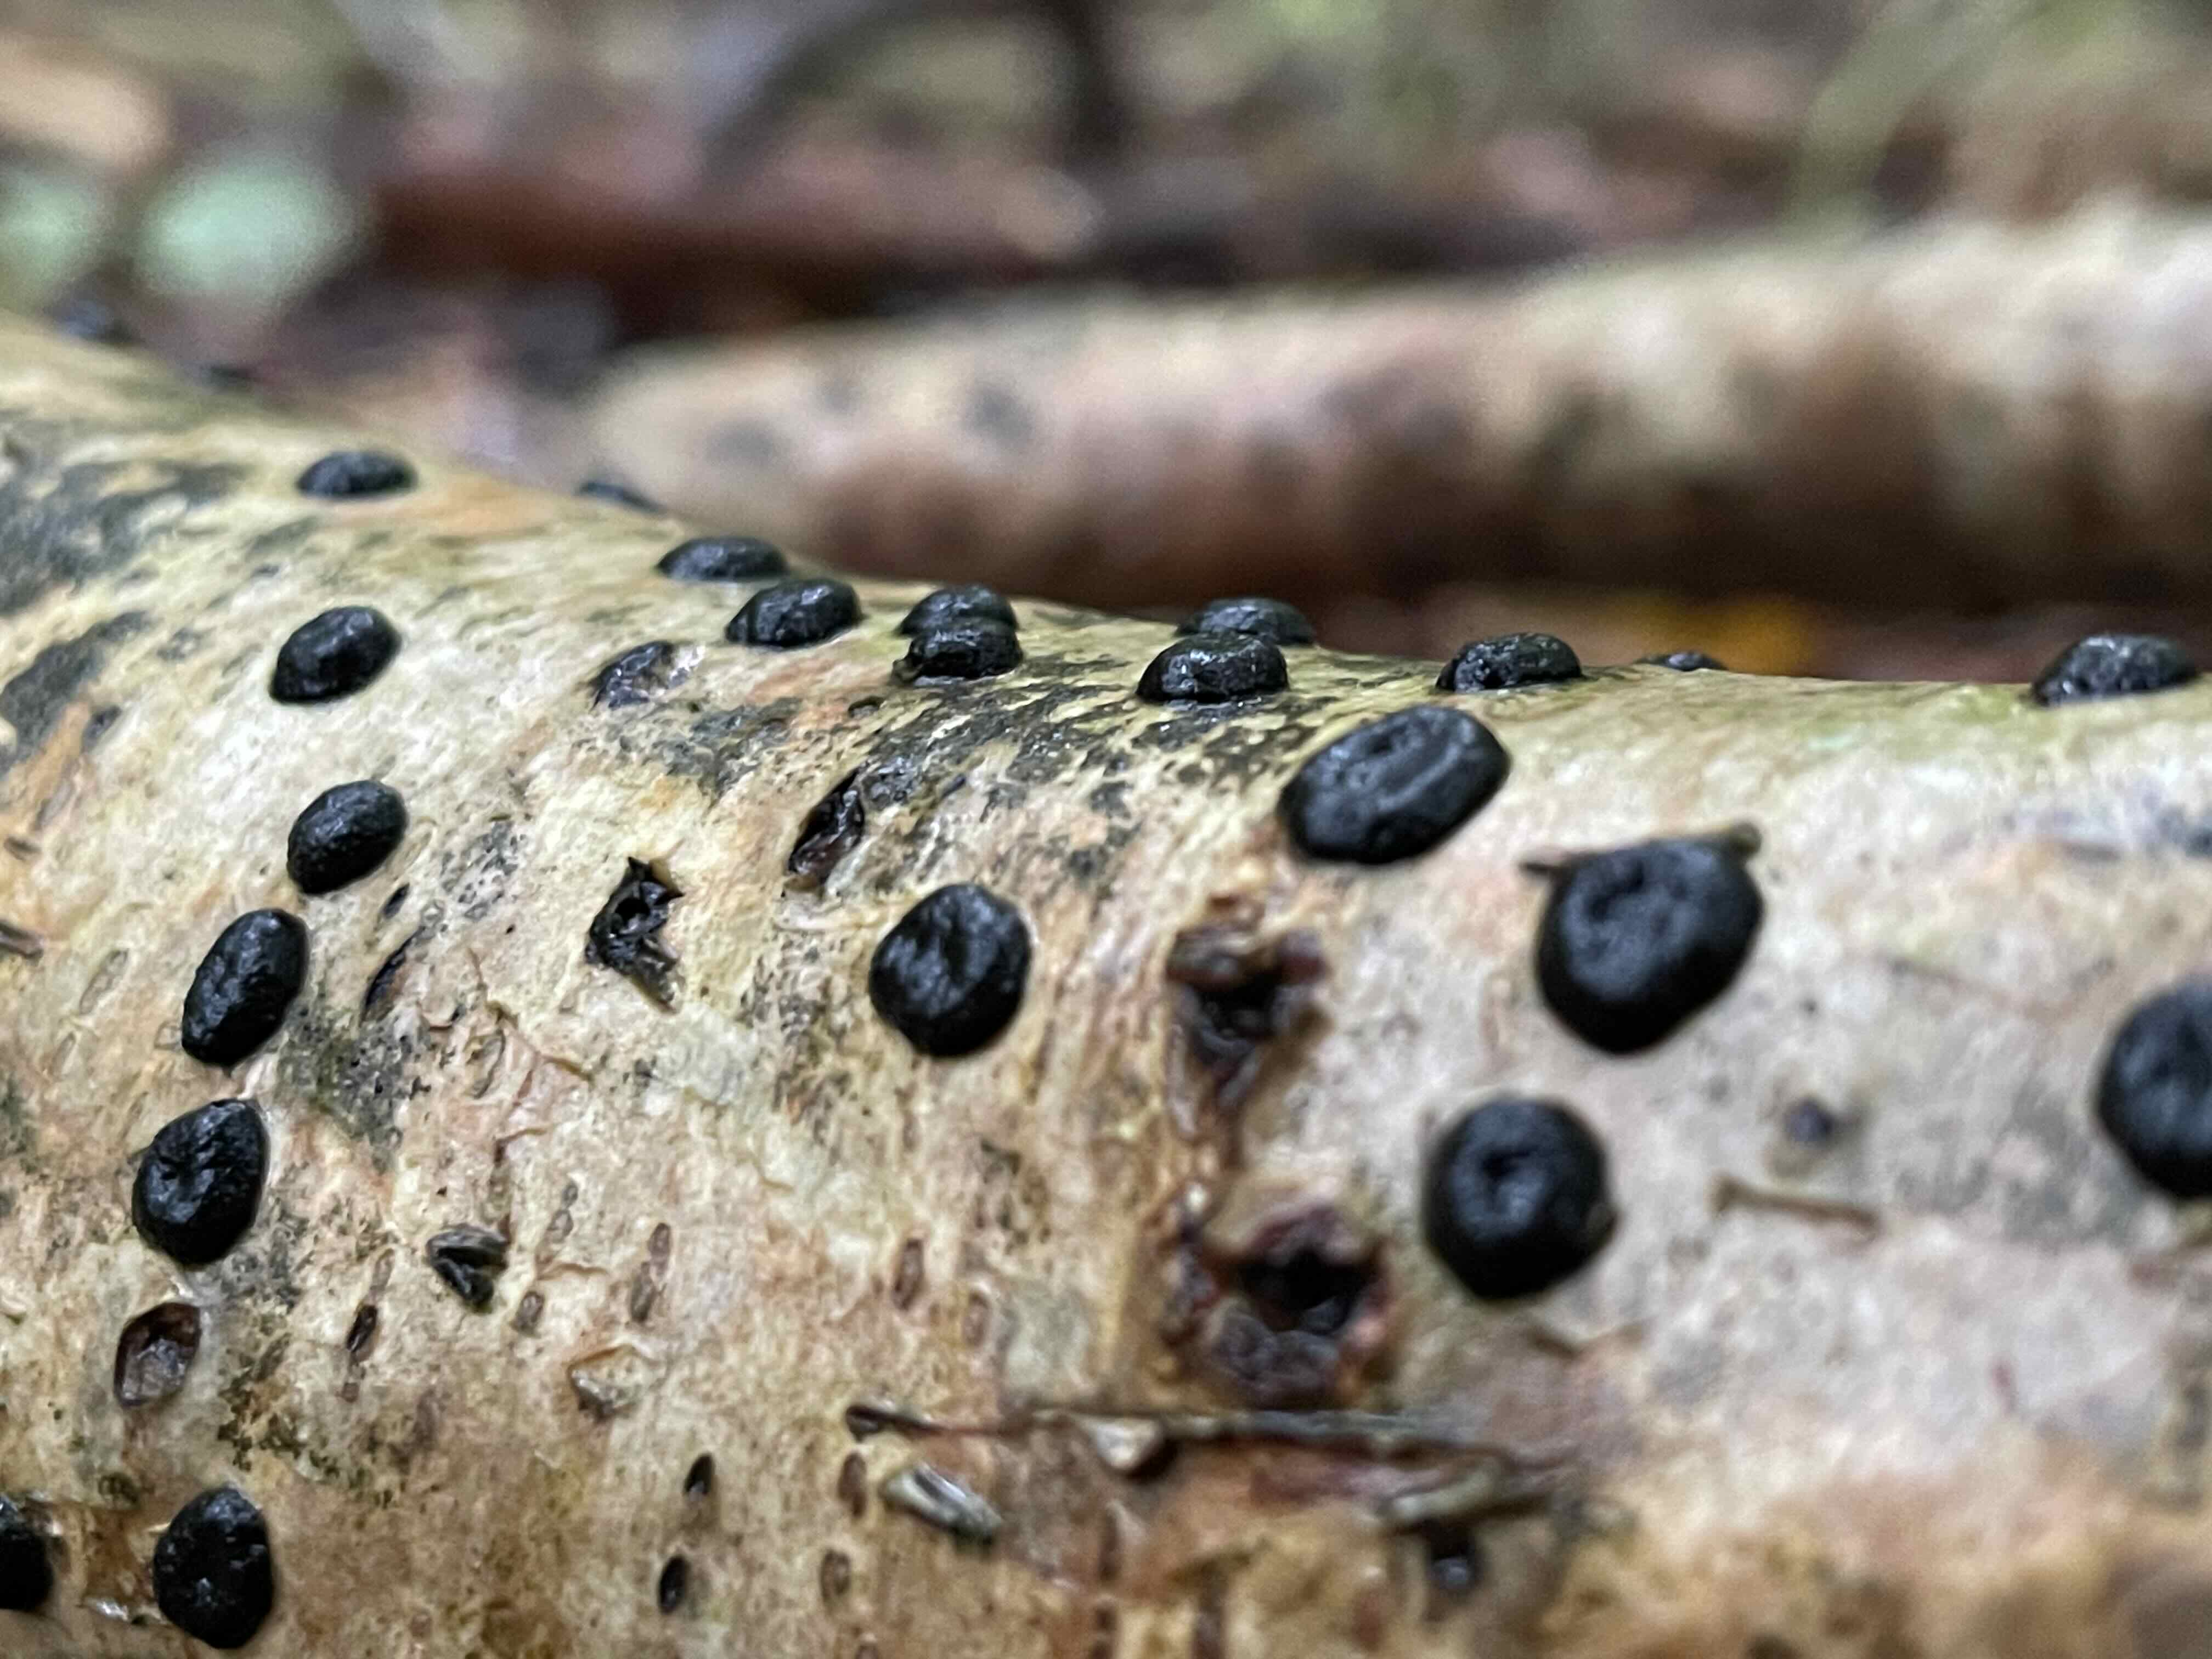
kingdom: Fungi
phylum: Ascomycota
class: Sordariomycetes
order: Xylariales
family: Hypoxylaceae
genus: Hypoxylon
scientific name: Hypoxylon fuscum
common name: kegleformet kulbær
